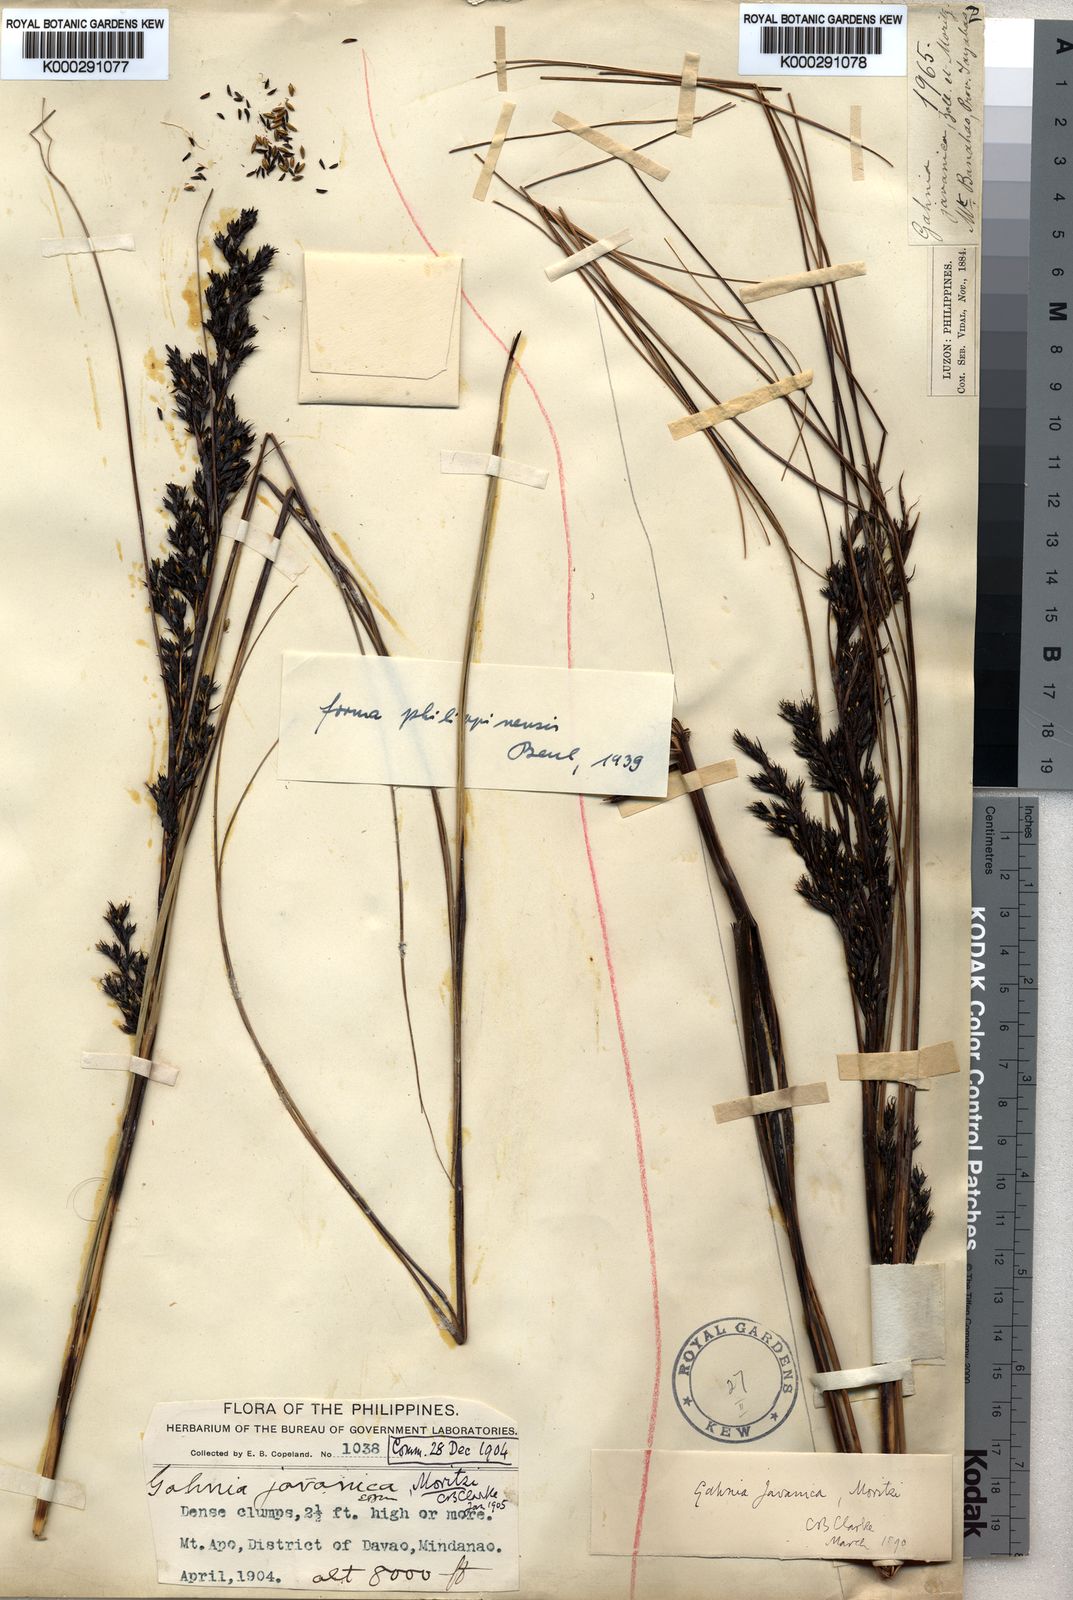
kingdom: Plantae
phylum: Tracheophyta
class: Liliopsida
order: Poales
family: Cyperaceae
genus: Gahnia
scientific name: Gahnia javanica
